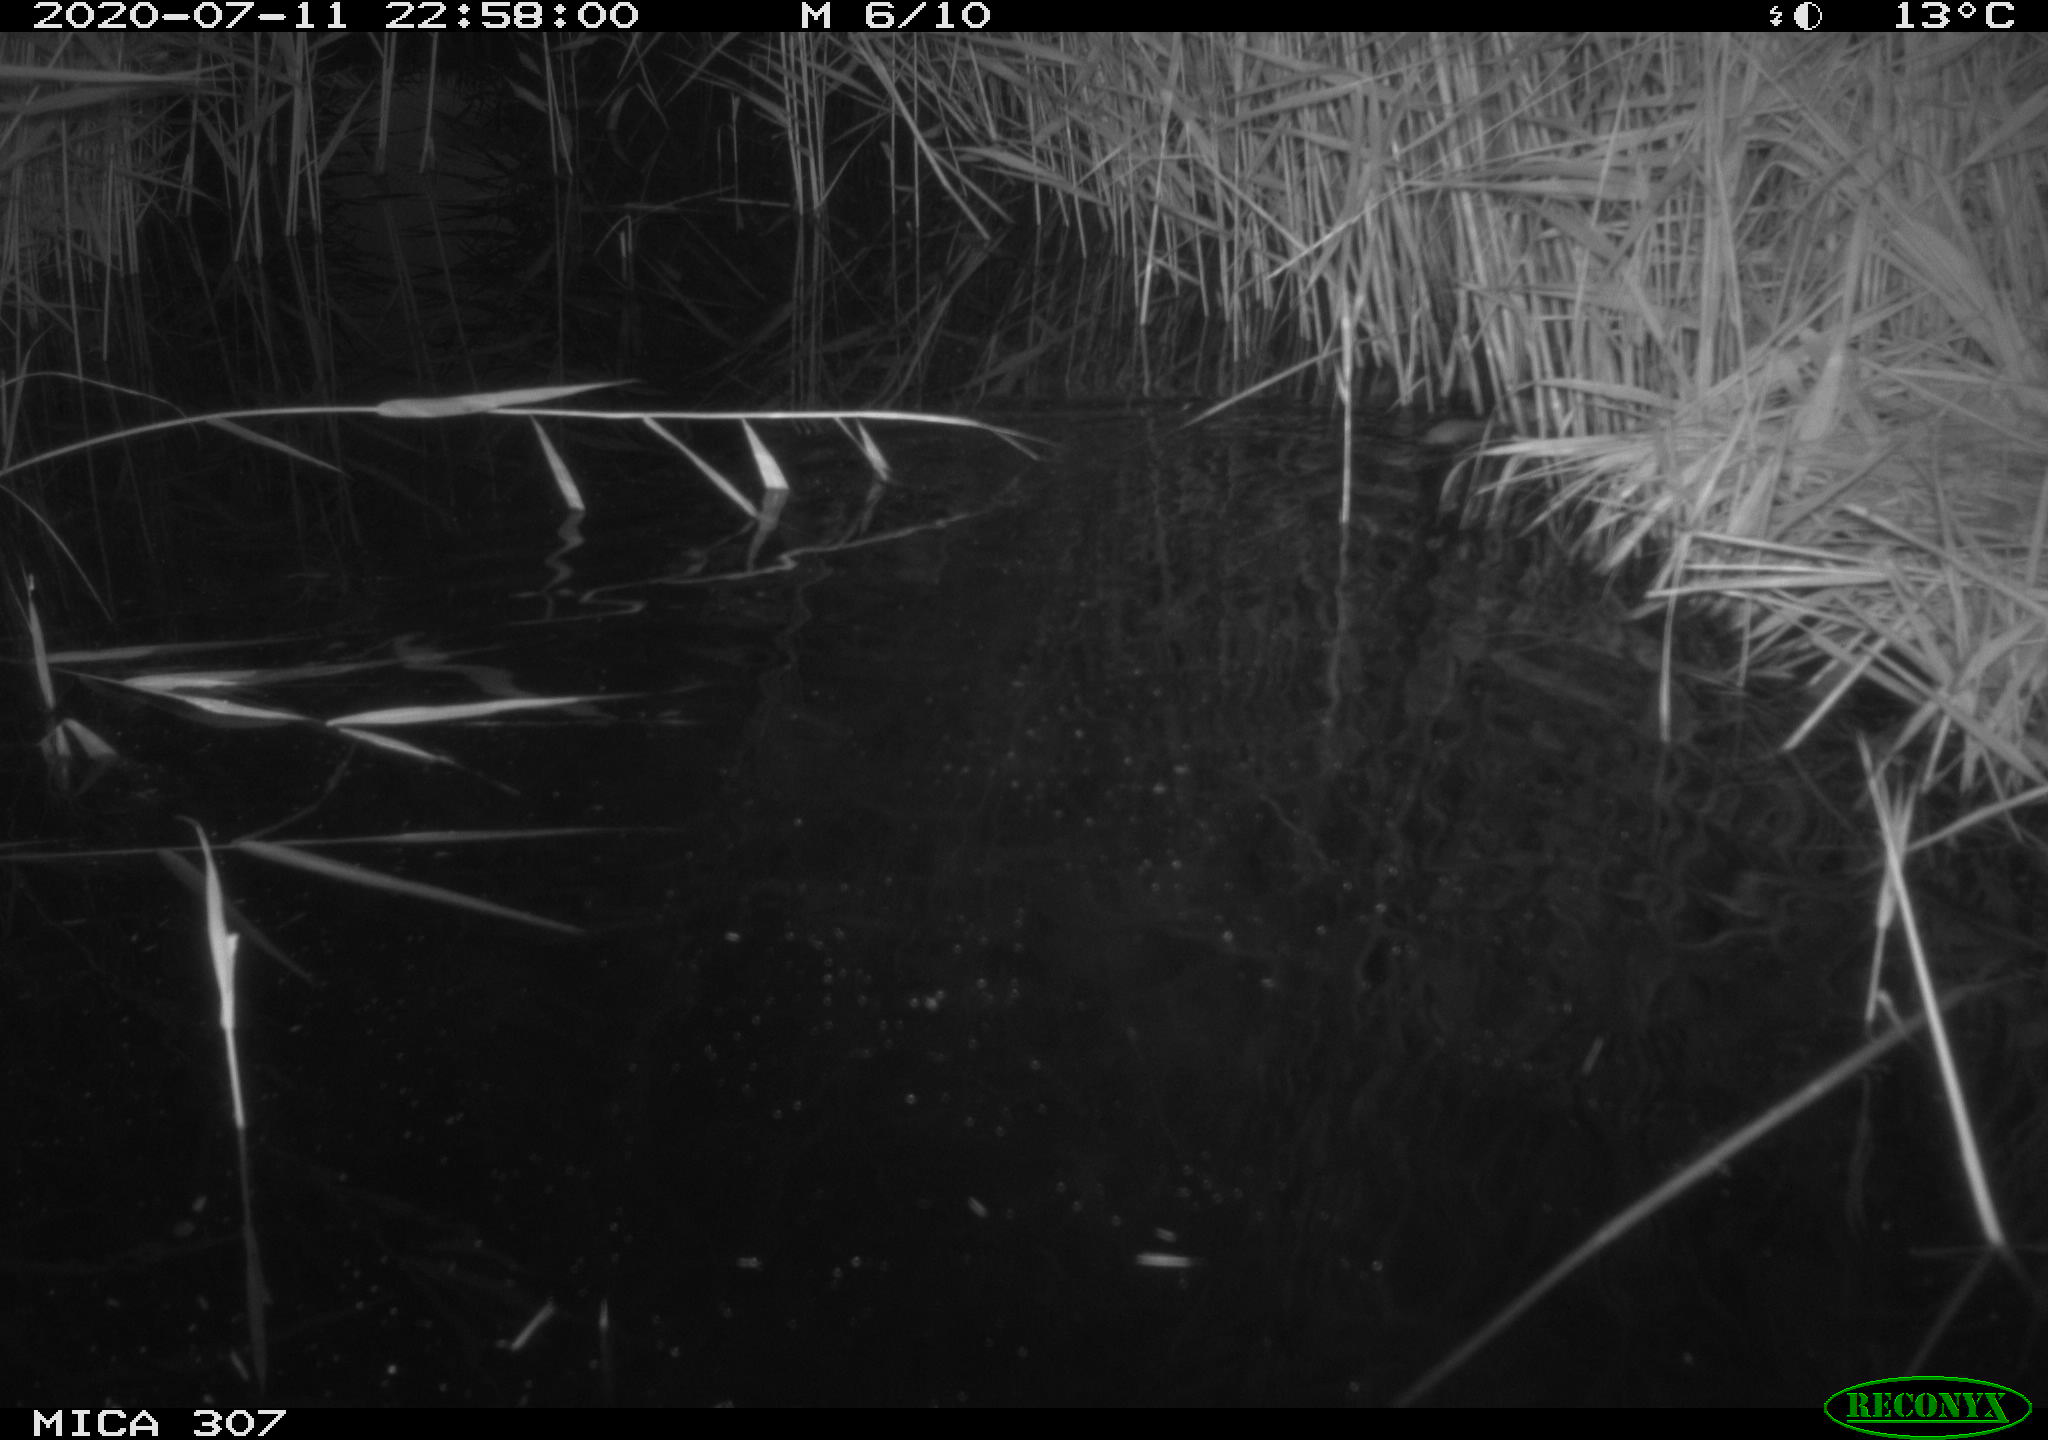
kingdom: Animalia
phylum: Chordata
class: Mammalia
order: Rodentia
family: Muridae
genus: Rattus
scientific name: Rattus norvegicus
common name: Brown rat
